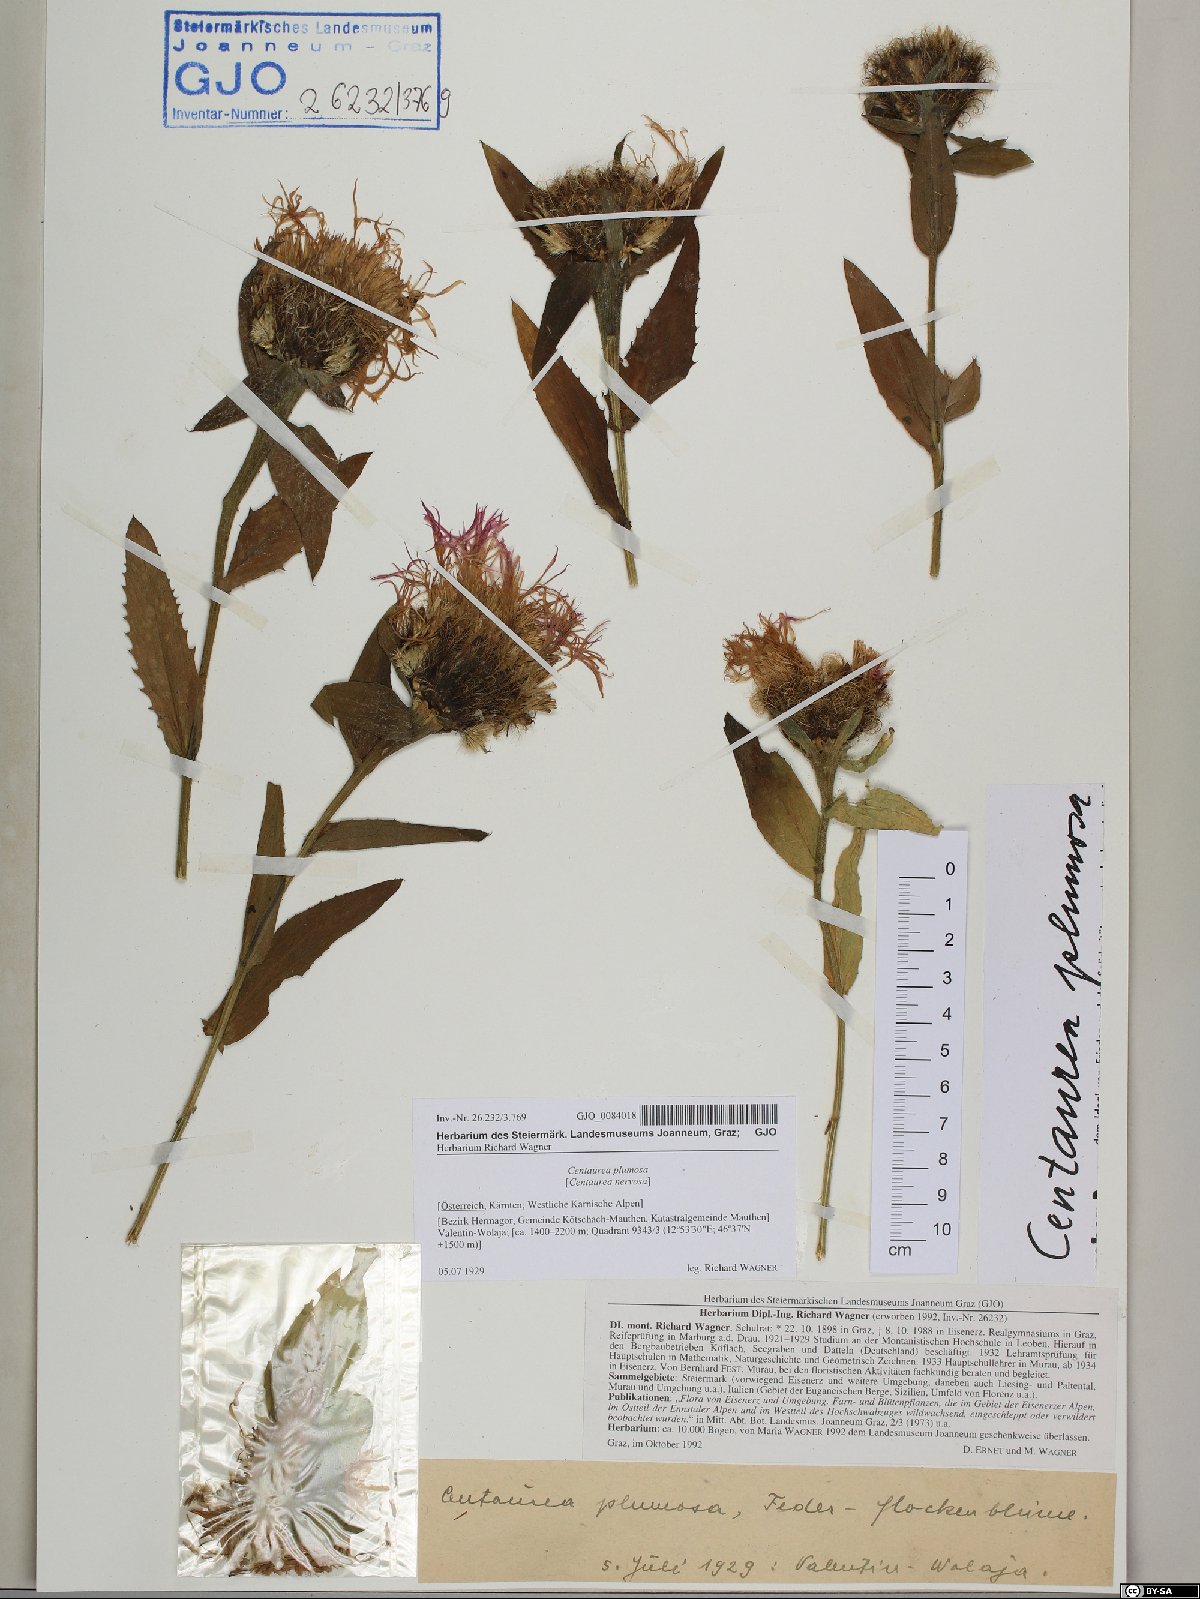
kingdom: Plantae
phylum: Tracheophyta
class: Magnoliopsida
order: Asterales
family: Asteraceae
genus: Centaurea
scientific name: Centaurea nervosa
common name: Singleflower knapweed
